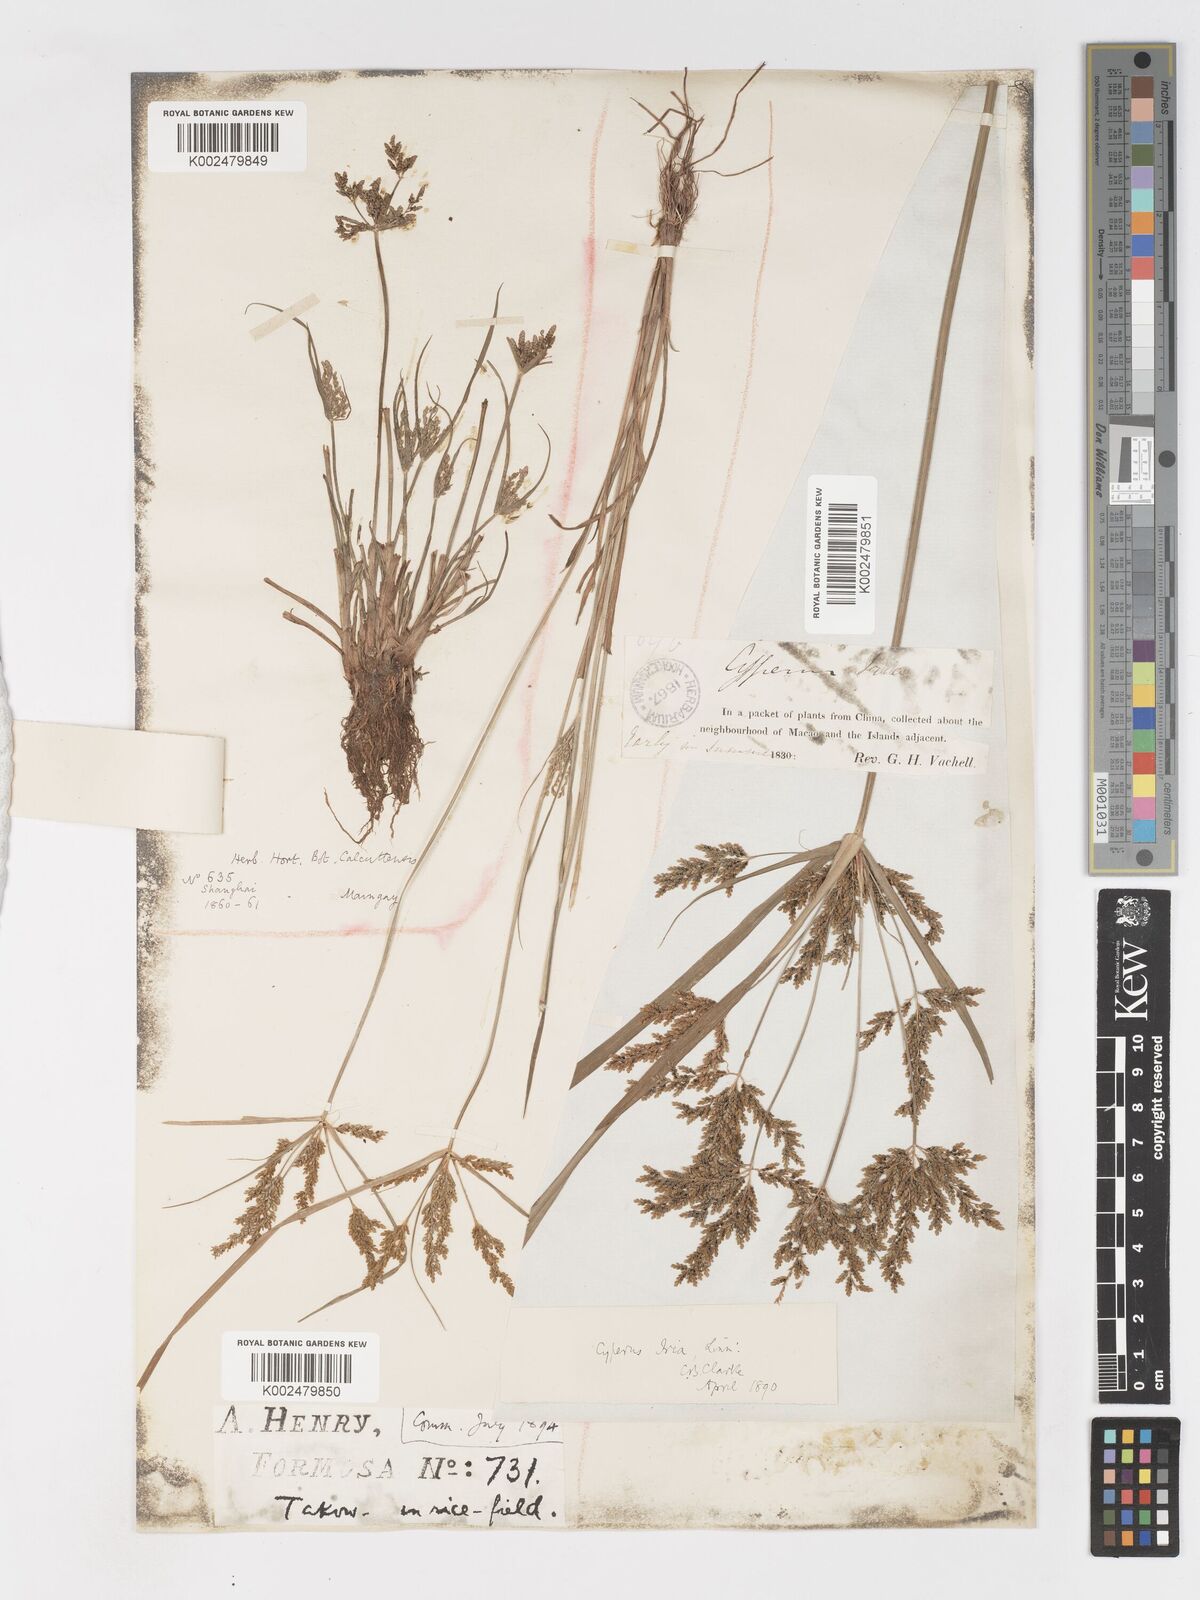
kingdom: Plantae
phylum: Tracheophyta
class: Liliopsida
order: Poales
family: Cyperaceae
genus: Cyperus
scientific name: Cyperus iria
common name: Ricefield flatsedge
